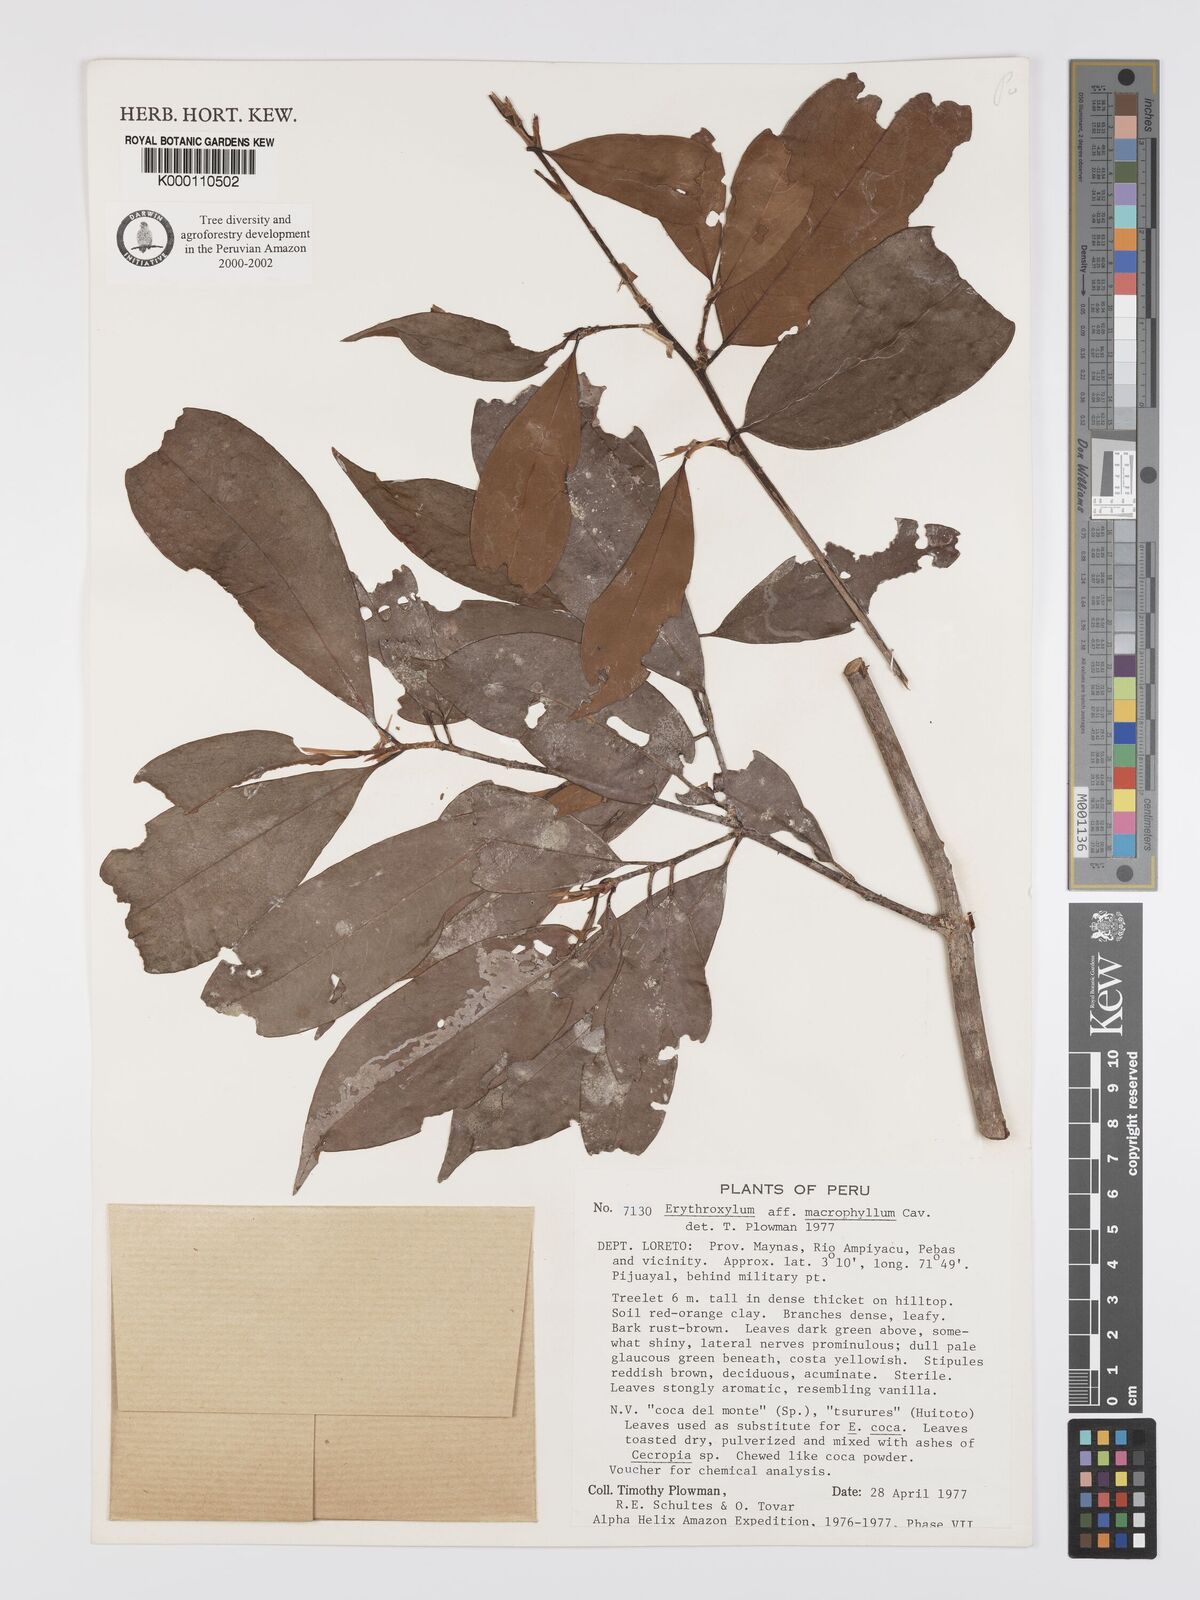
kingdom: Plantae
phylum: Tracheophyta
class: Magnoliopsida
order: Malpighiales
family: Erythroxylaceae
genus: Erythroxylum
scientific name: Erythroxylum
